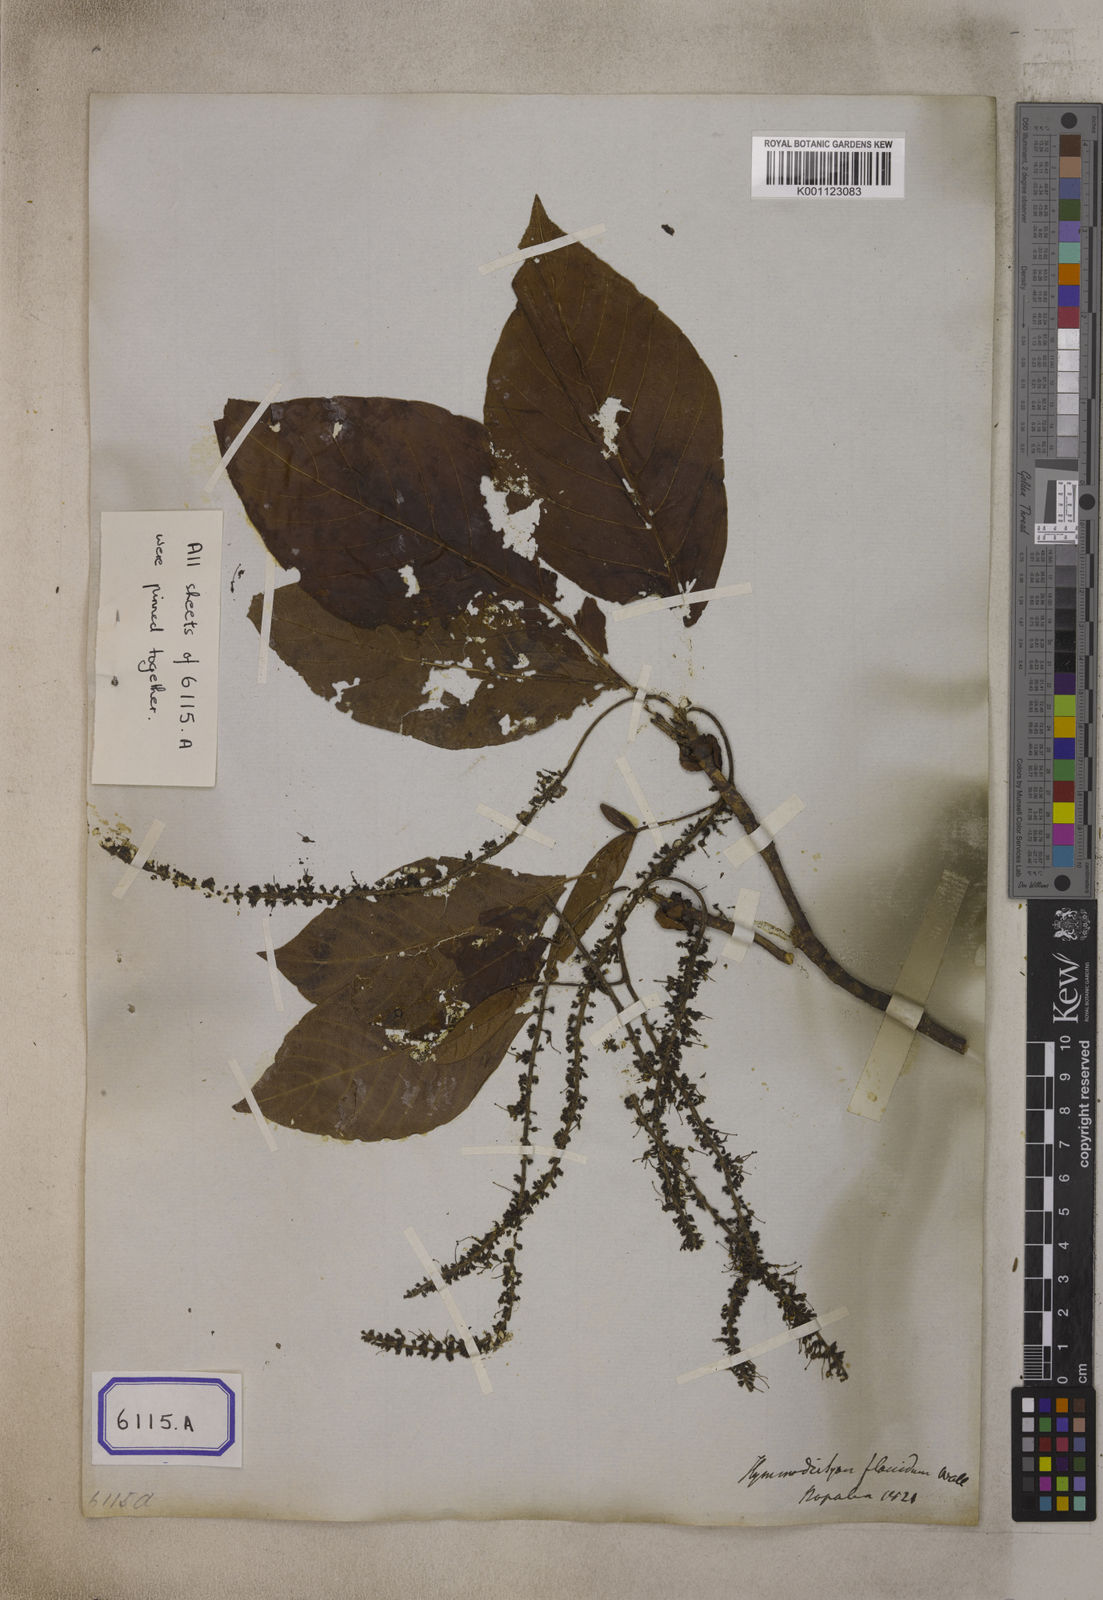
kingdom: Plantae
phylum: Tracheophyta
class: Magnoliopsida
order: Gentianales
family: Rubiaceae
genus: Hymenodictyon
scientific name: Hymenodictyon flaccidum
